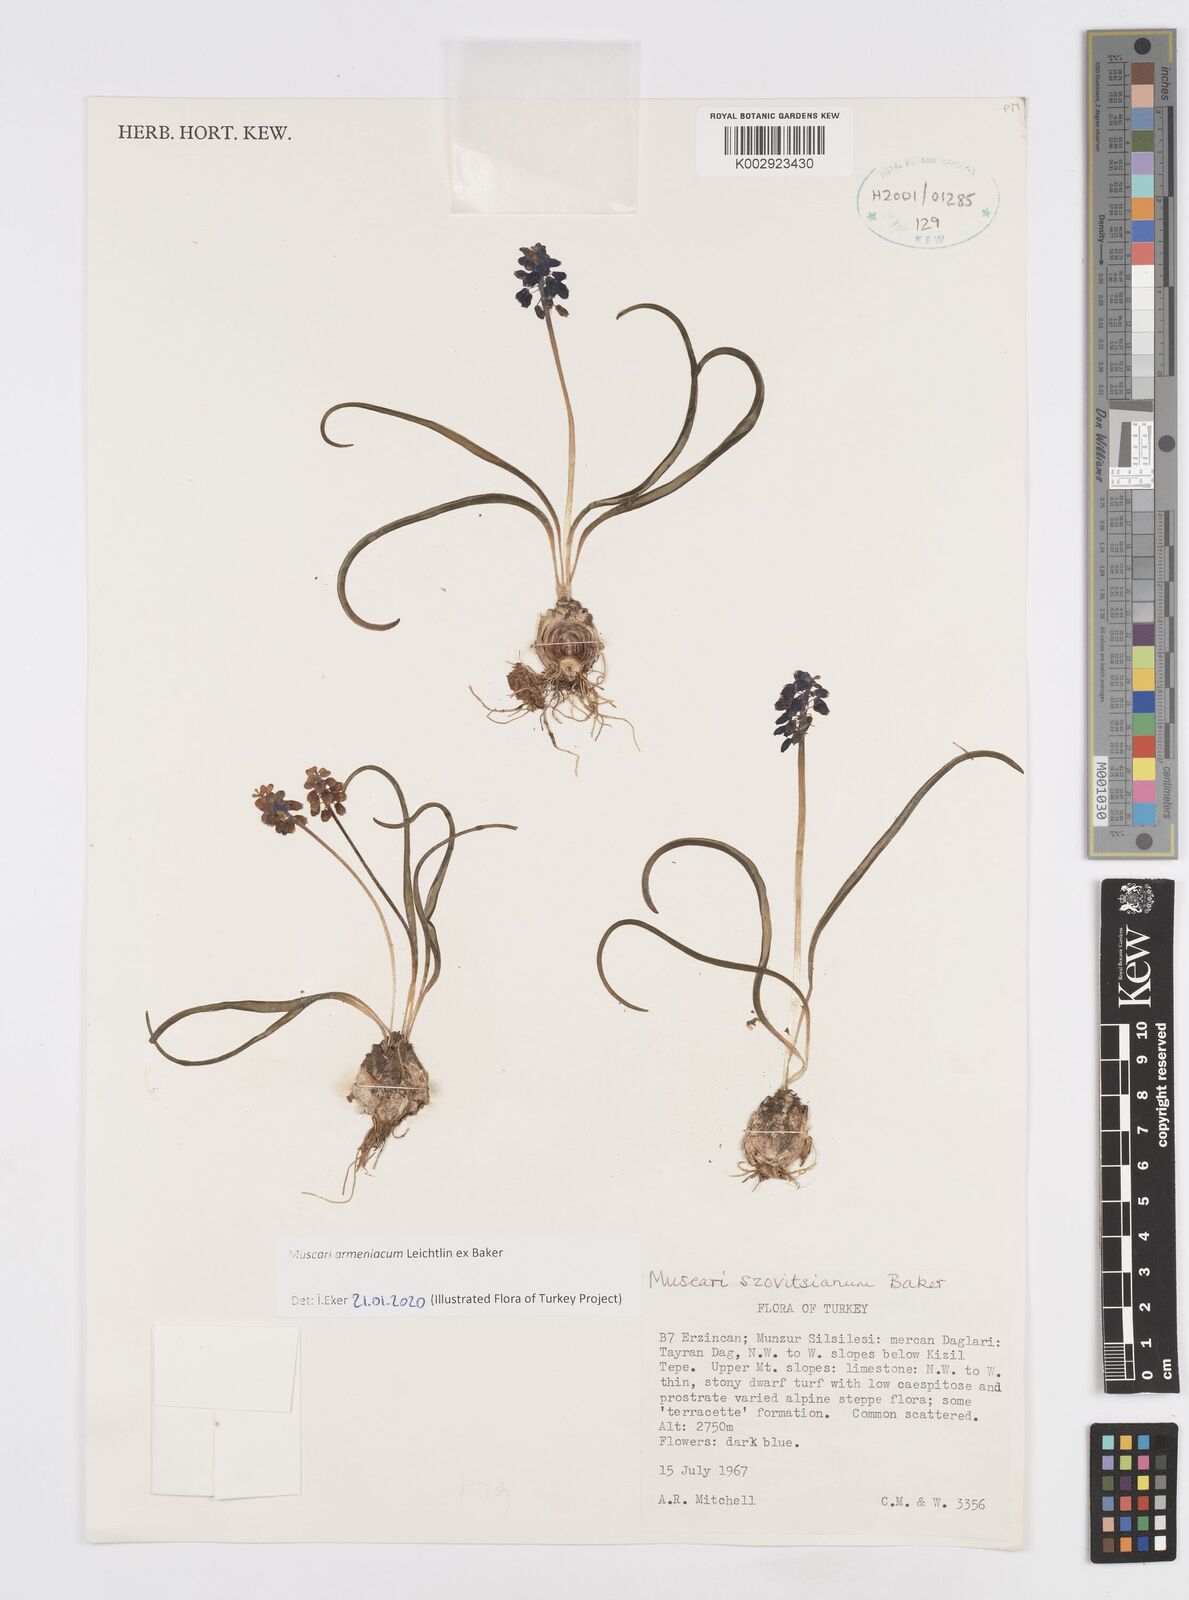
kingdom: Plantae
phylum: Tracheophyta
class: Liliopsida
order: Asparagales
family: Asparagaceae
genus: Muscari
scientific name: Muscari neglectum
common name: Grape-hyacinth
